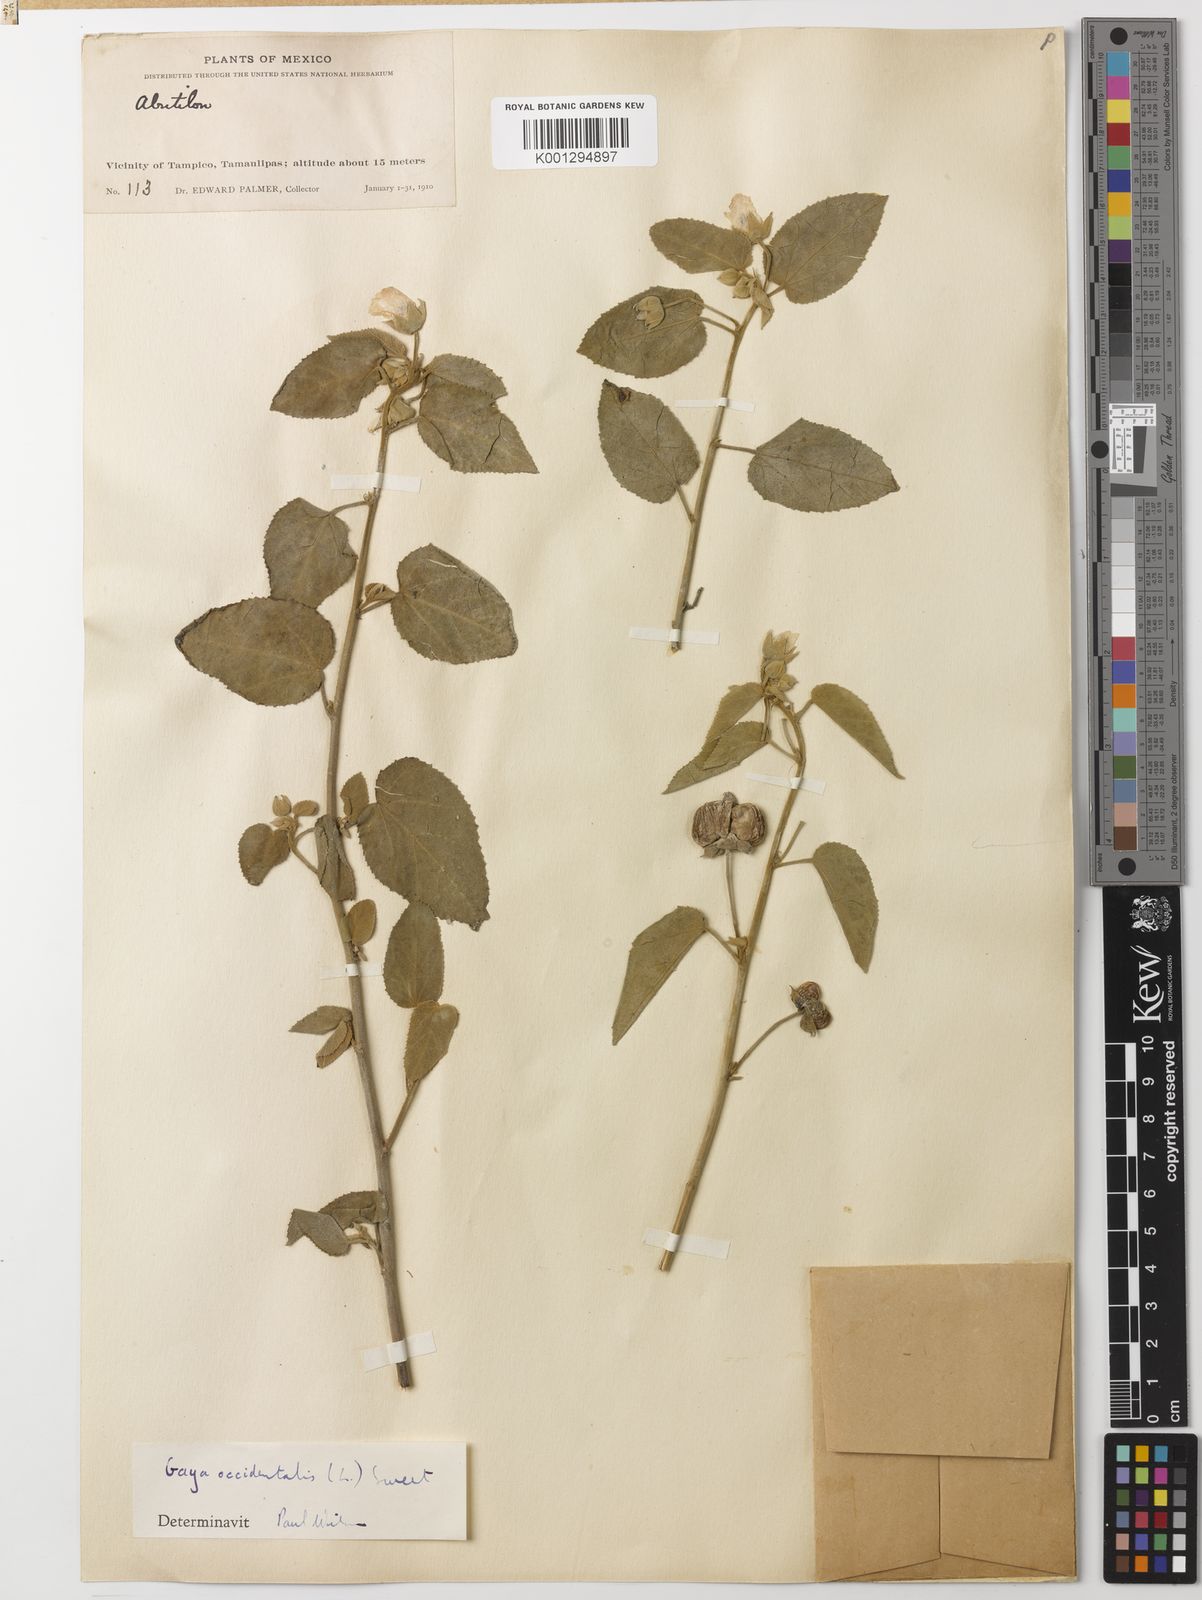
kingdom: Plantae
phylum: Tracheophyta
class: Magnoliopsida
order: Malvales
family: Malvaceae
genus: Gaya
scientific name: Gaya occidentalis
